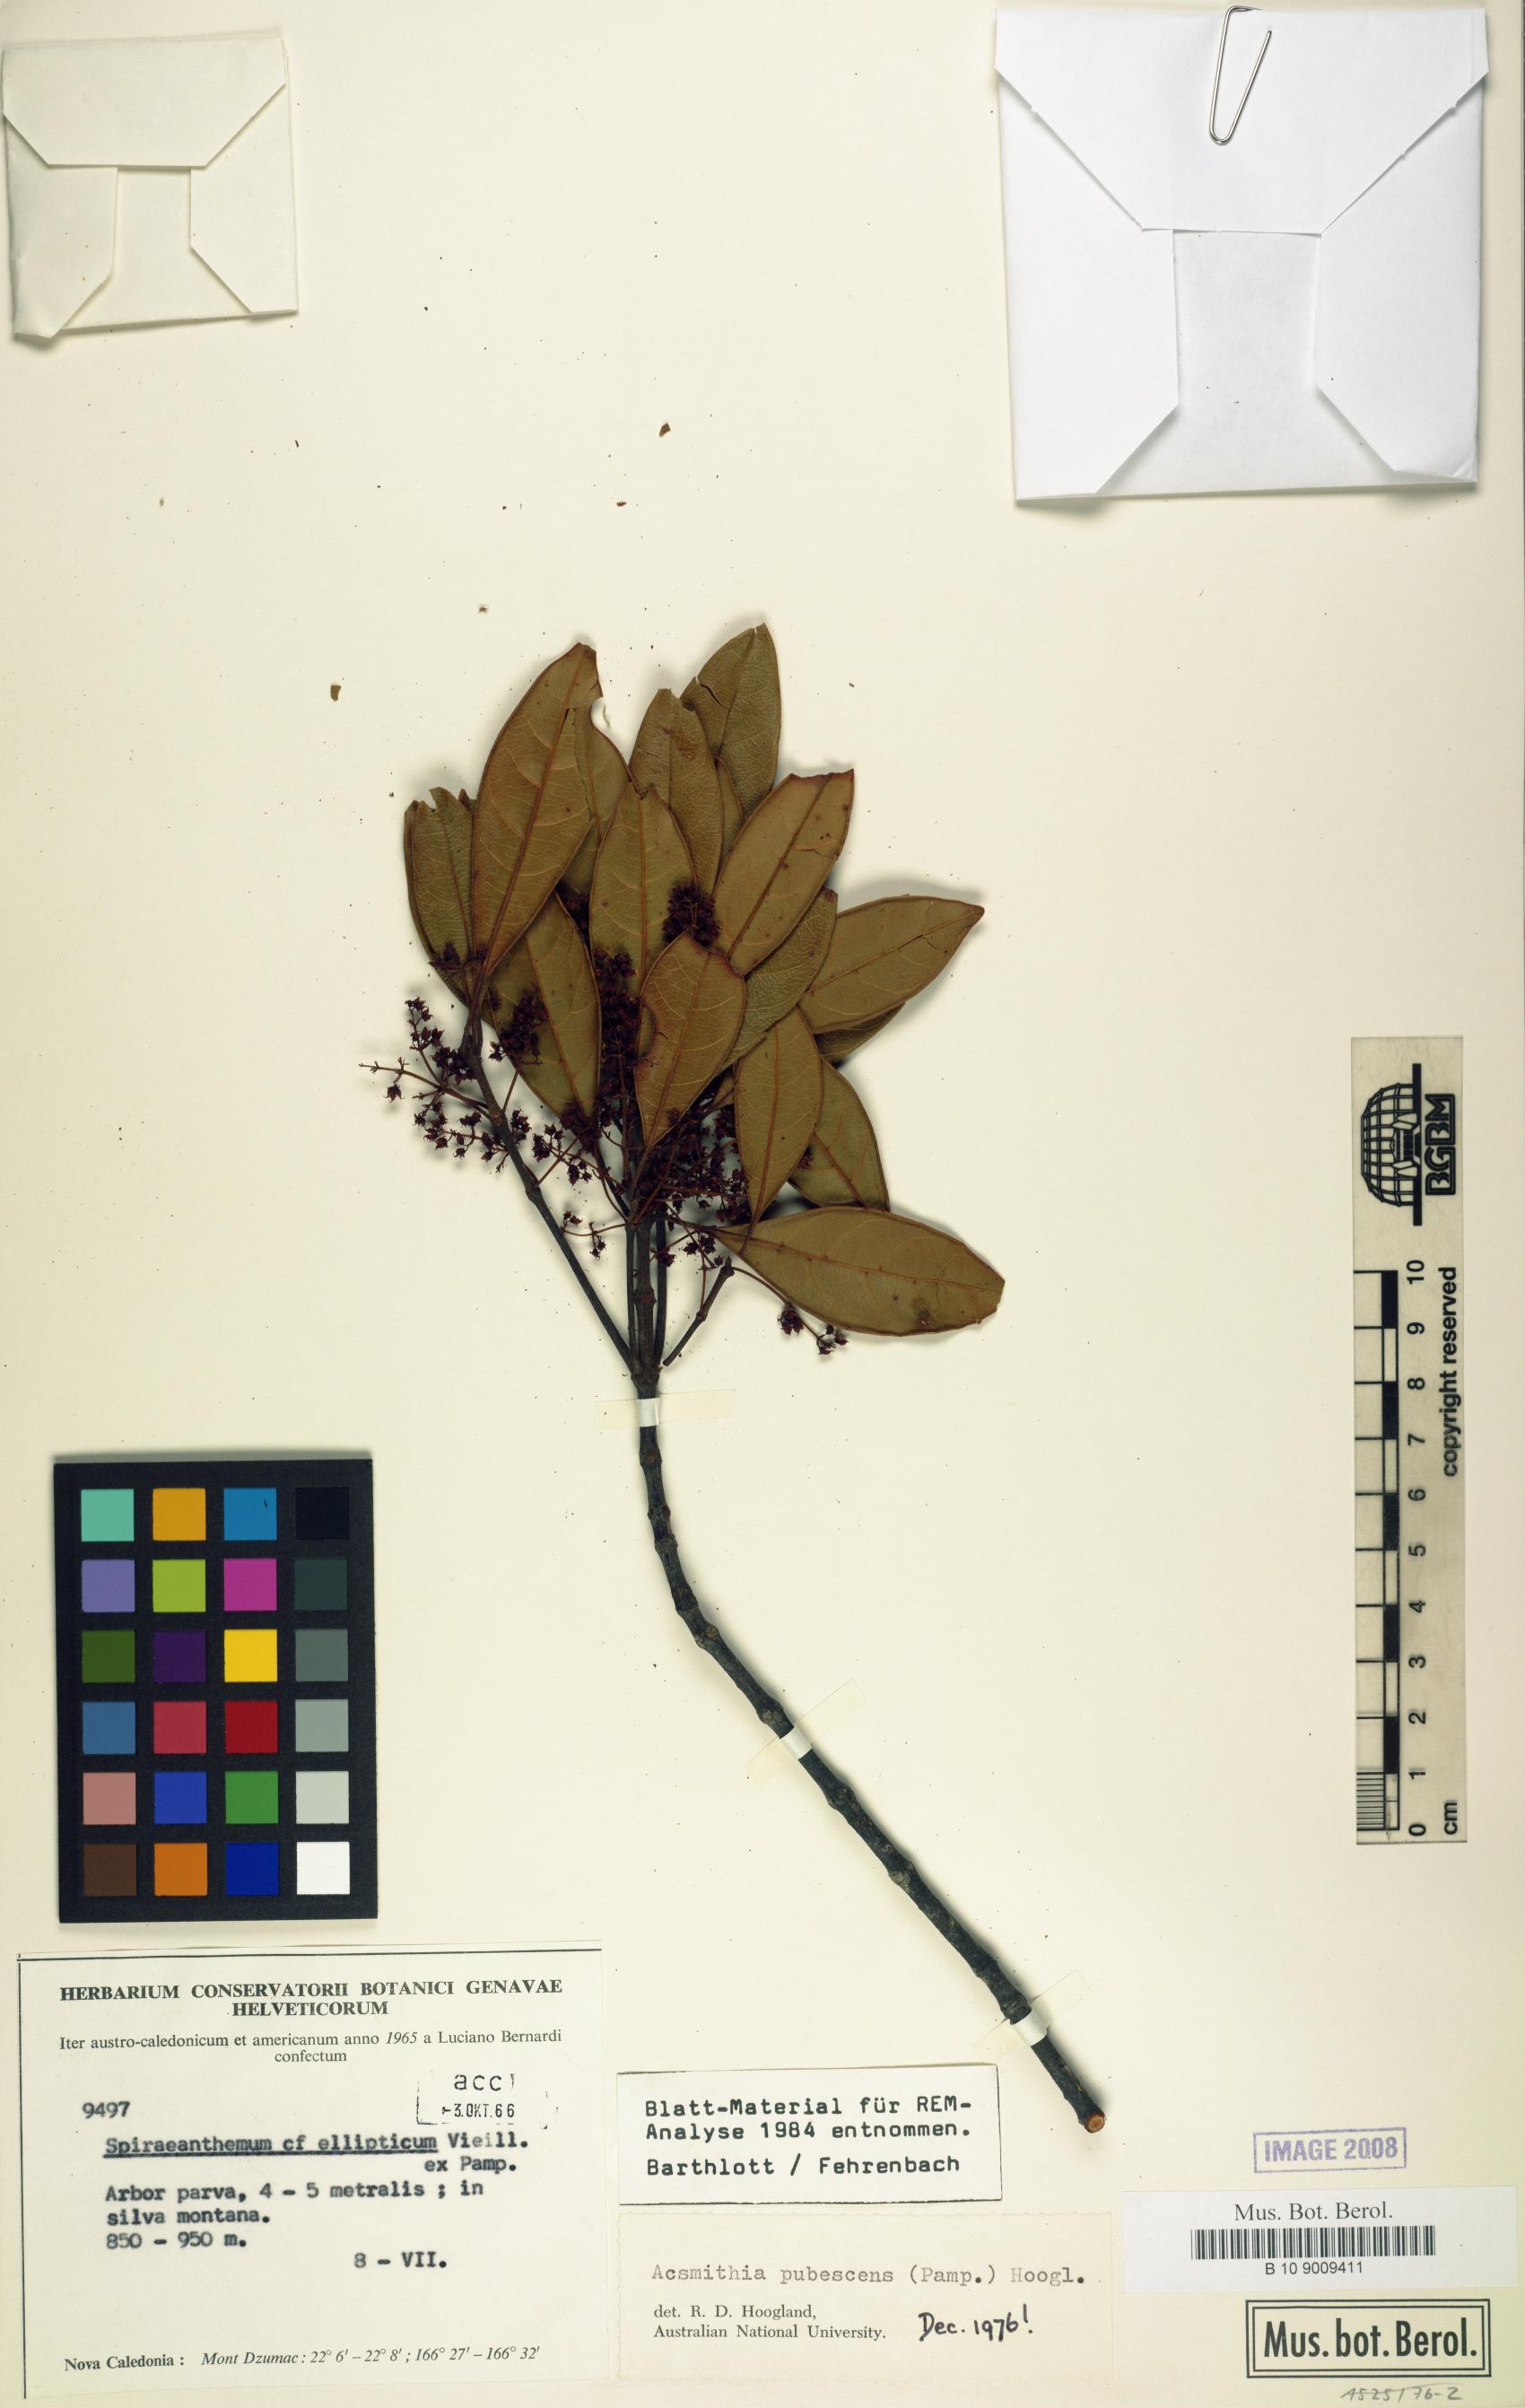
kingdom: Plantae
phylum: Tracheophyta
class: Magnoliopsida
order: Oxalidales
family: Cunoniaceae
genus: Spiraeanthemum
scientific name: Spiraeanthemum pubescens
